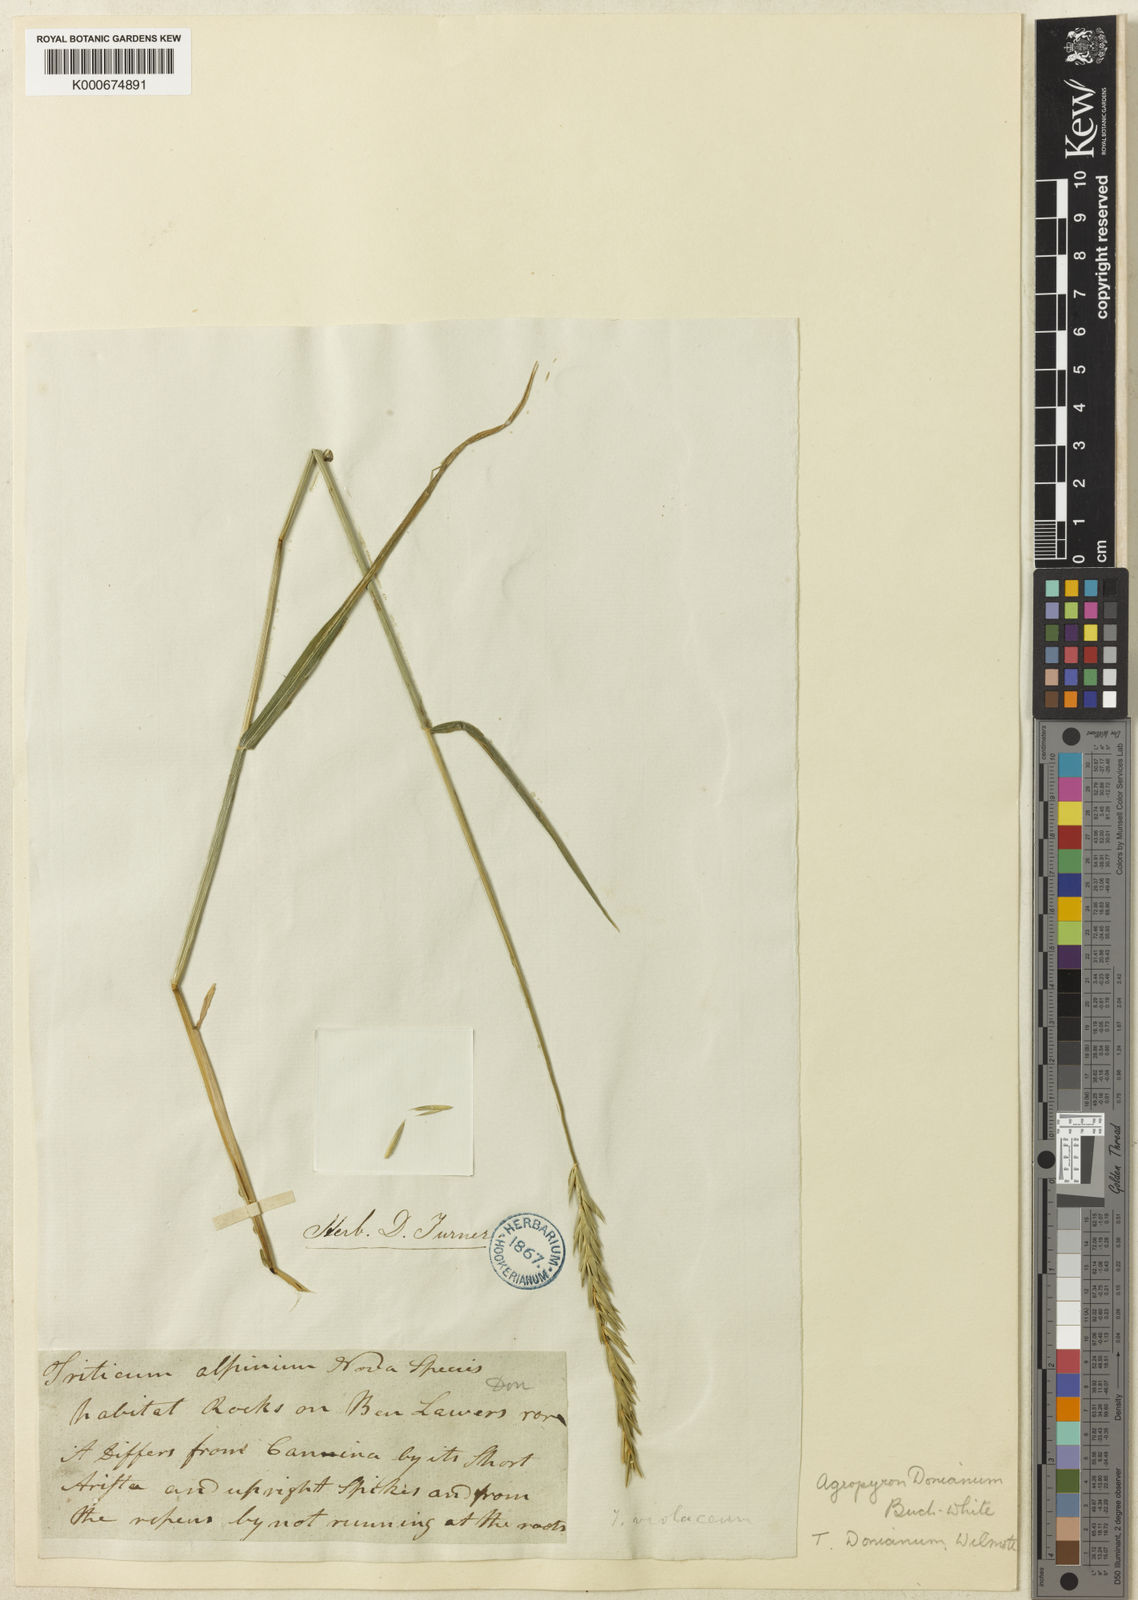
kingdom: Plantae
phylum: Tracheophyta
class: Liliopsida
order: Poales
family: Poaceae
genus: Elymus
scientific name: Elymus caninus
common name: Bearded couch
